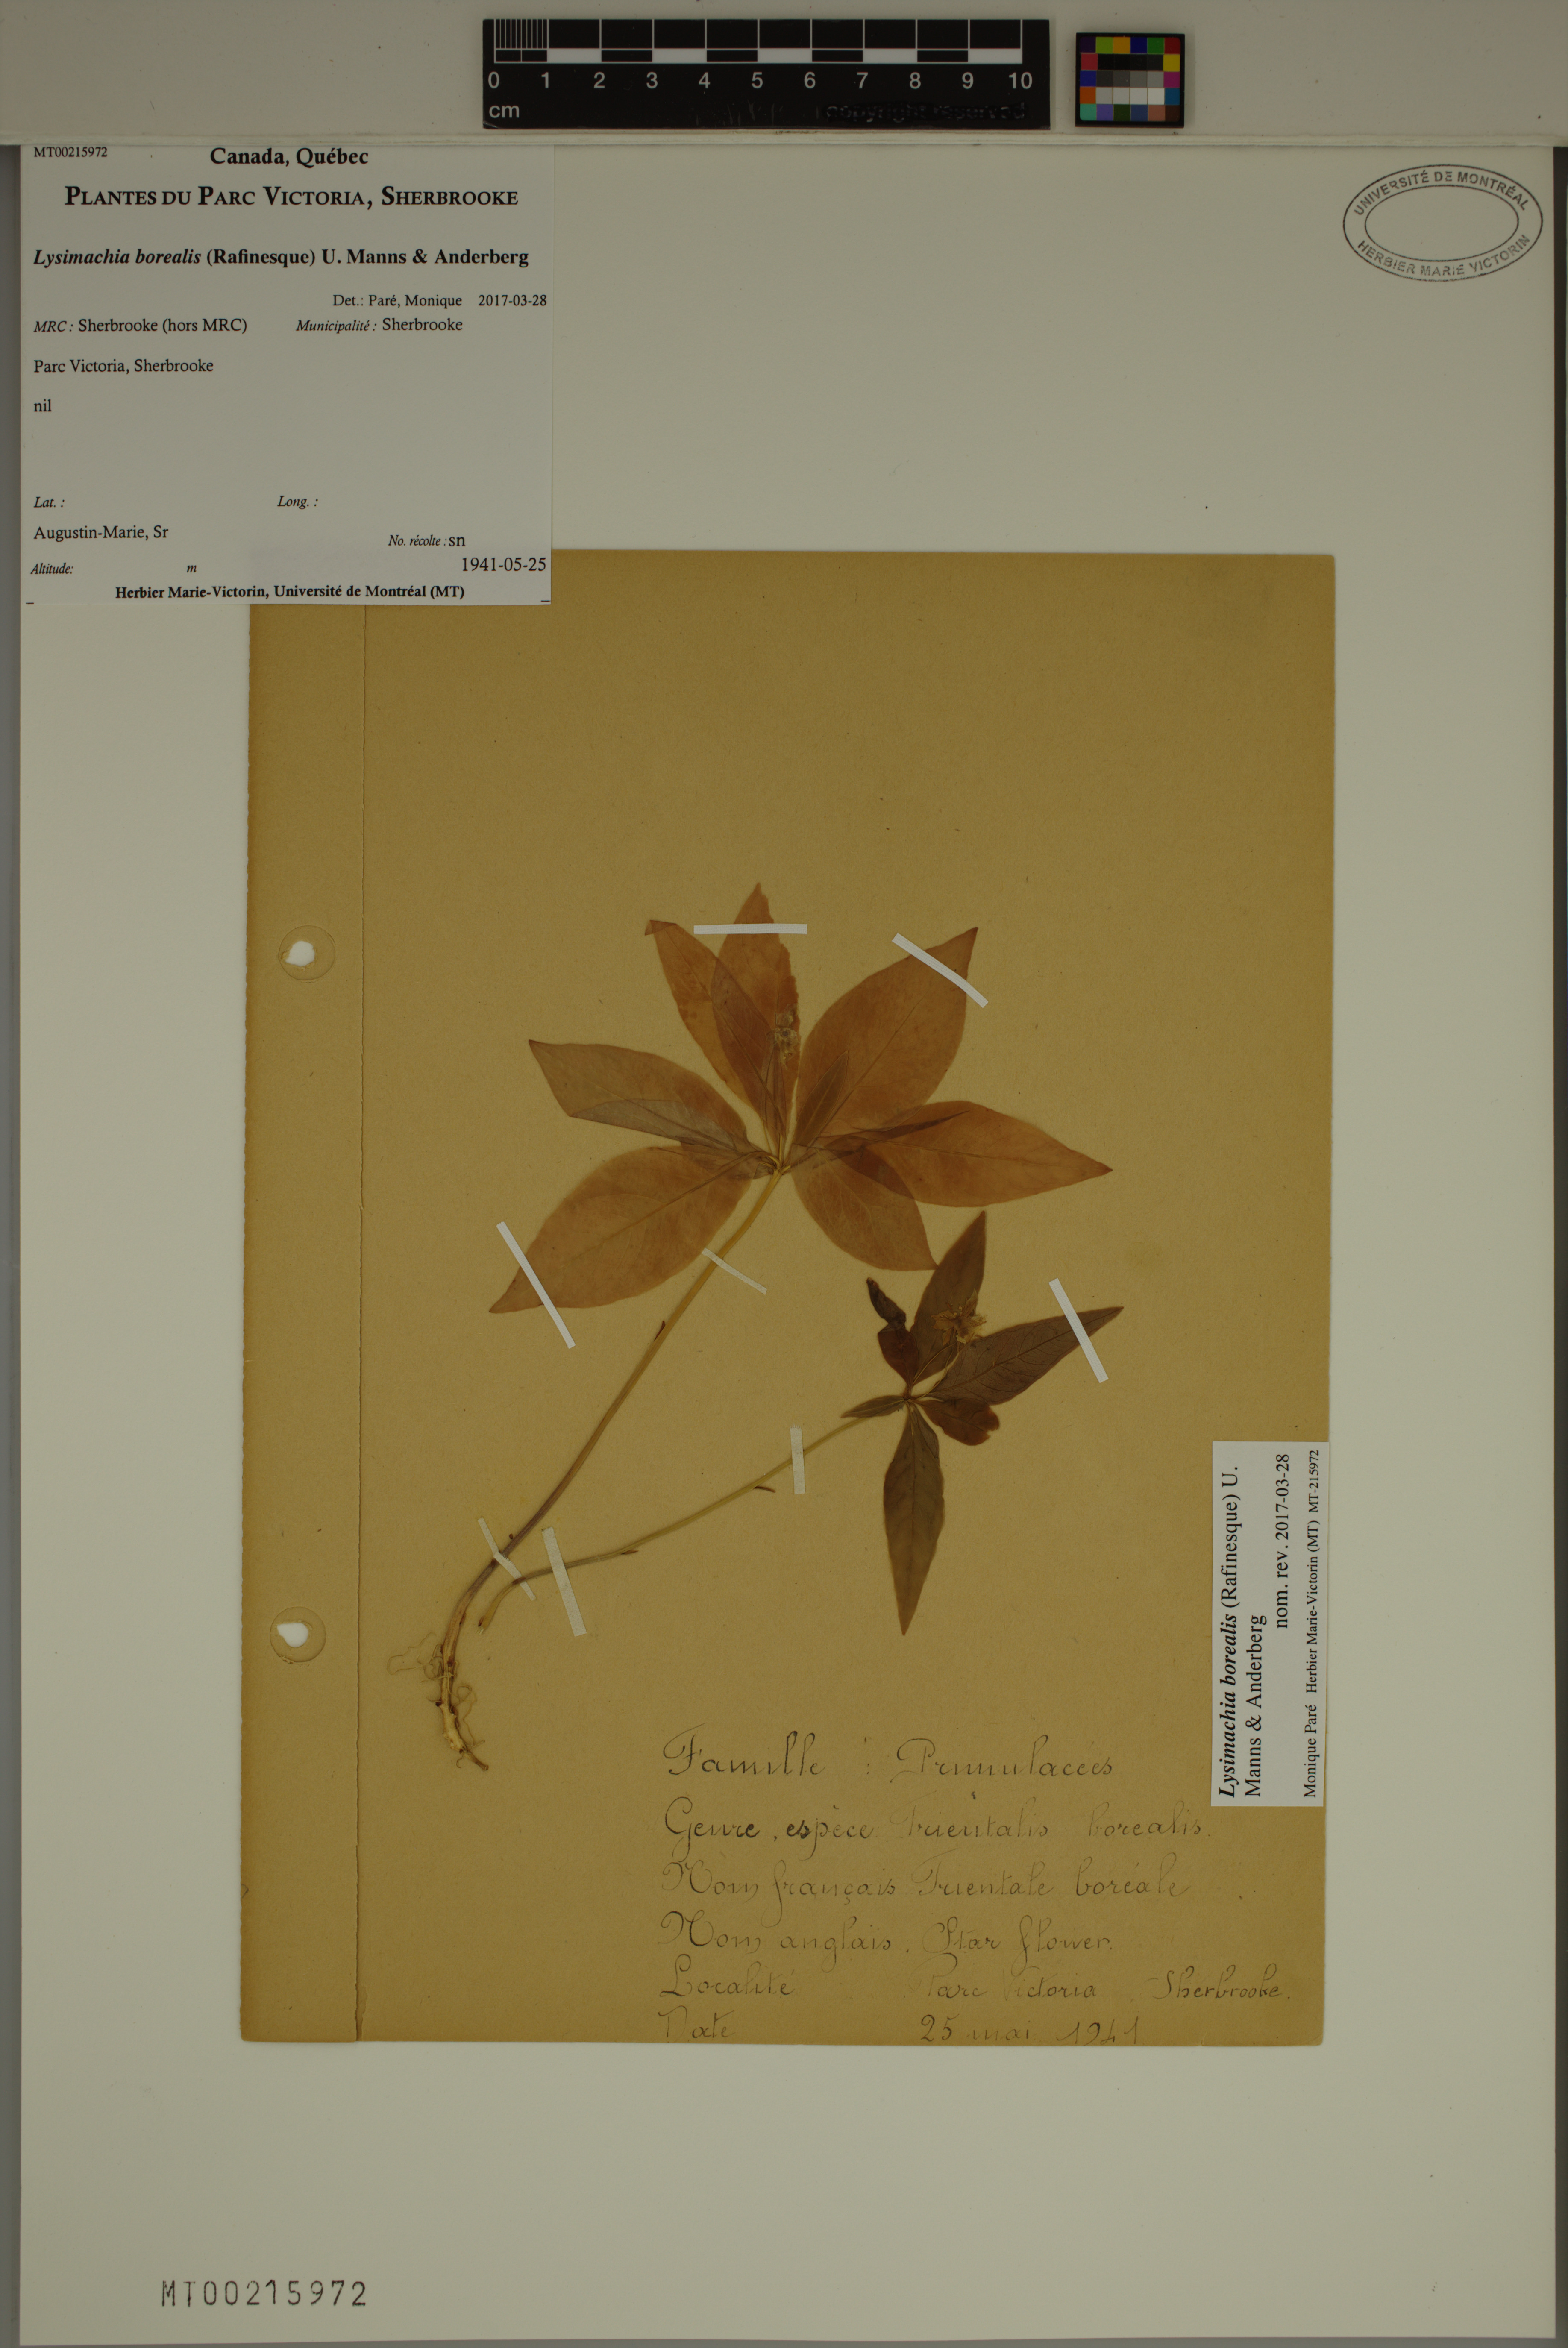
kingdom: Plantae
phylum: Tracheophyta
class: Magnoliopsida
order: Ericales
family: Primulaceae
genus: Lysimachia
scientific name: Lysimachia borealis
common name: American starflower
